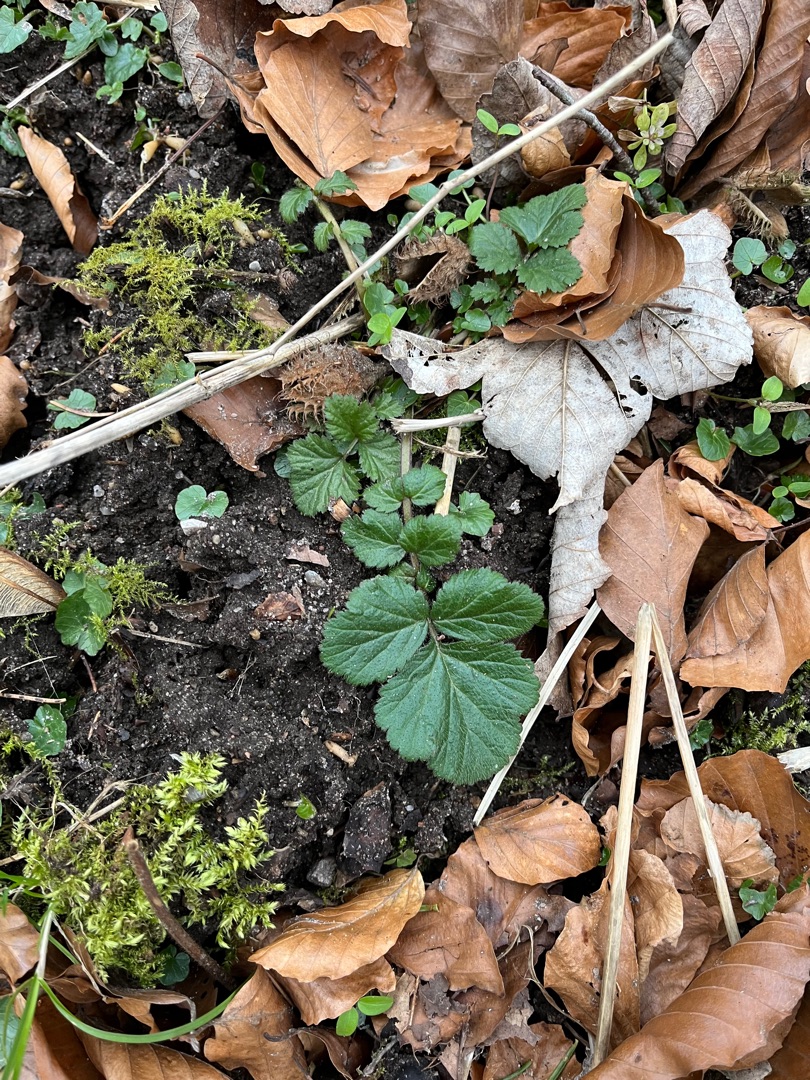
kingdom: Plantae
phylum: Tracheophyta
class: Magnoliopsida
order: Rosales
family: Rosaceae
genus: Geum
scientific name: Geum urbanum
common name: Feber-nellikerod
